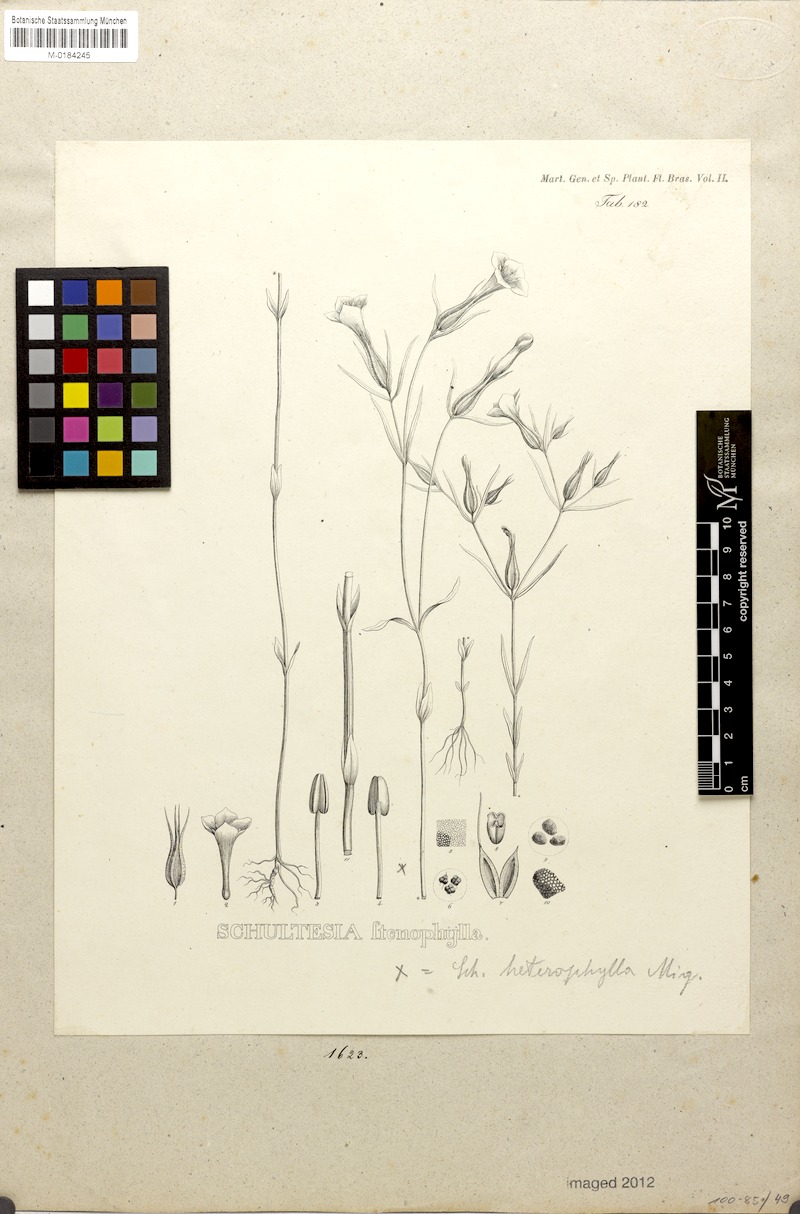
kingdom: Plantae
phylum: Tracheophyta
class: Magnoliopsida
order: Gentianales
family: Gentianaceae
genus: Schultesia
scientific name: Schultesia brachyptera
